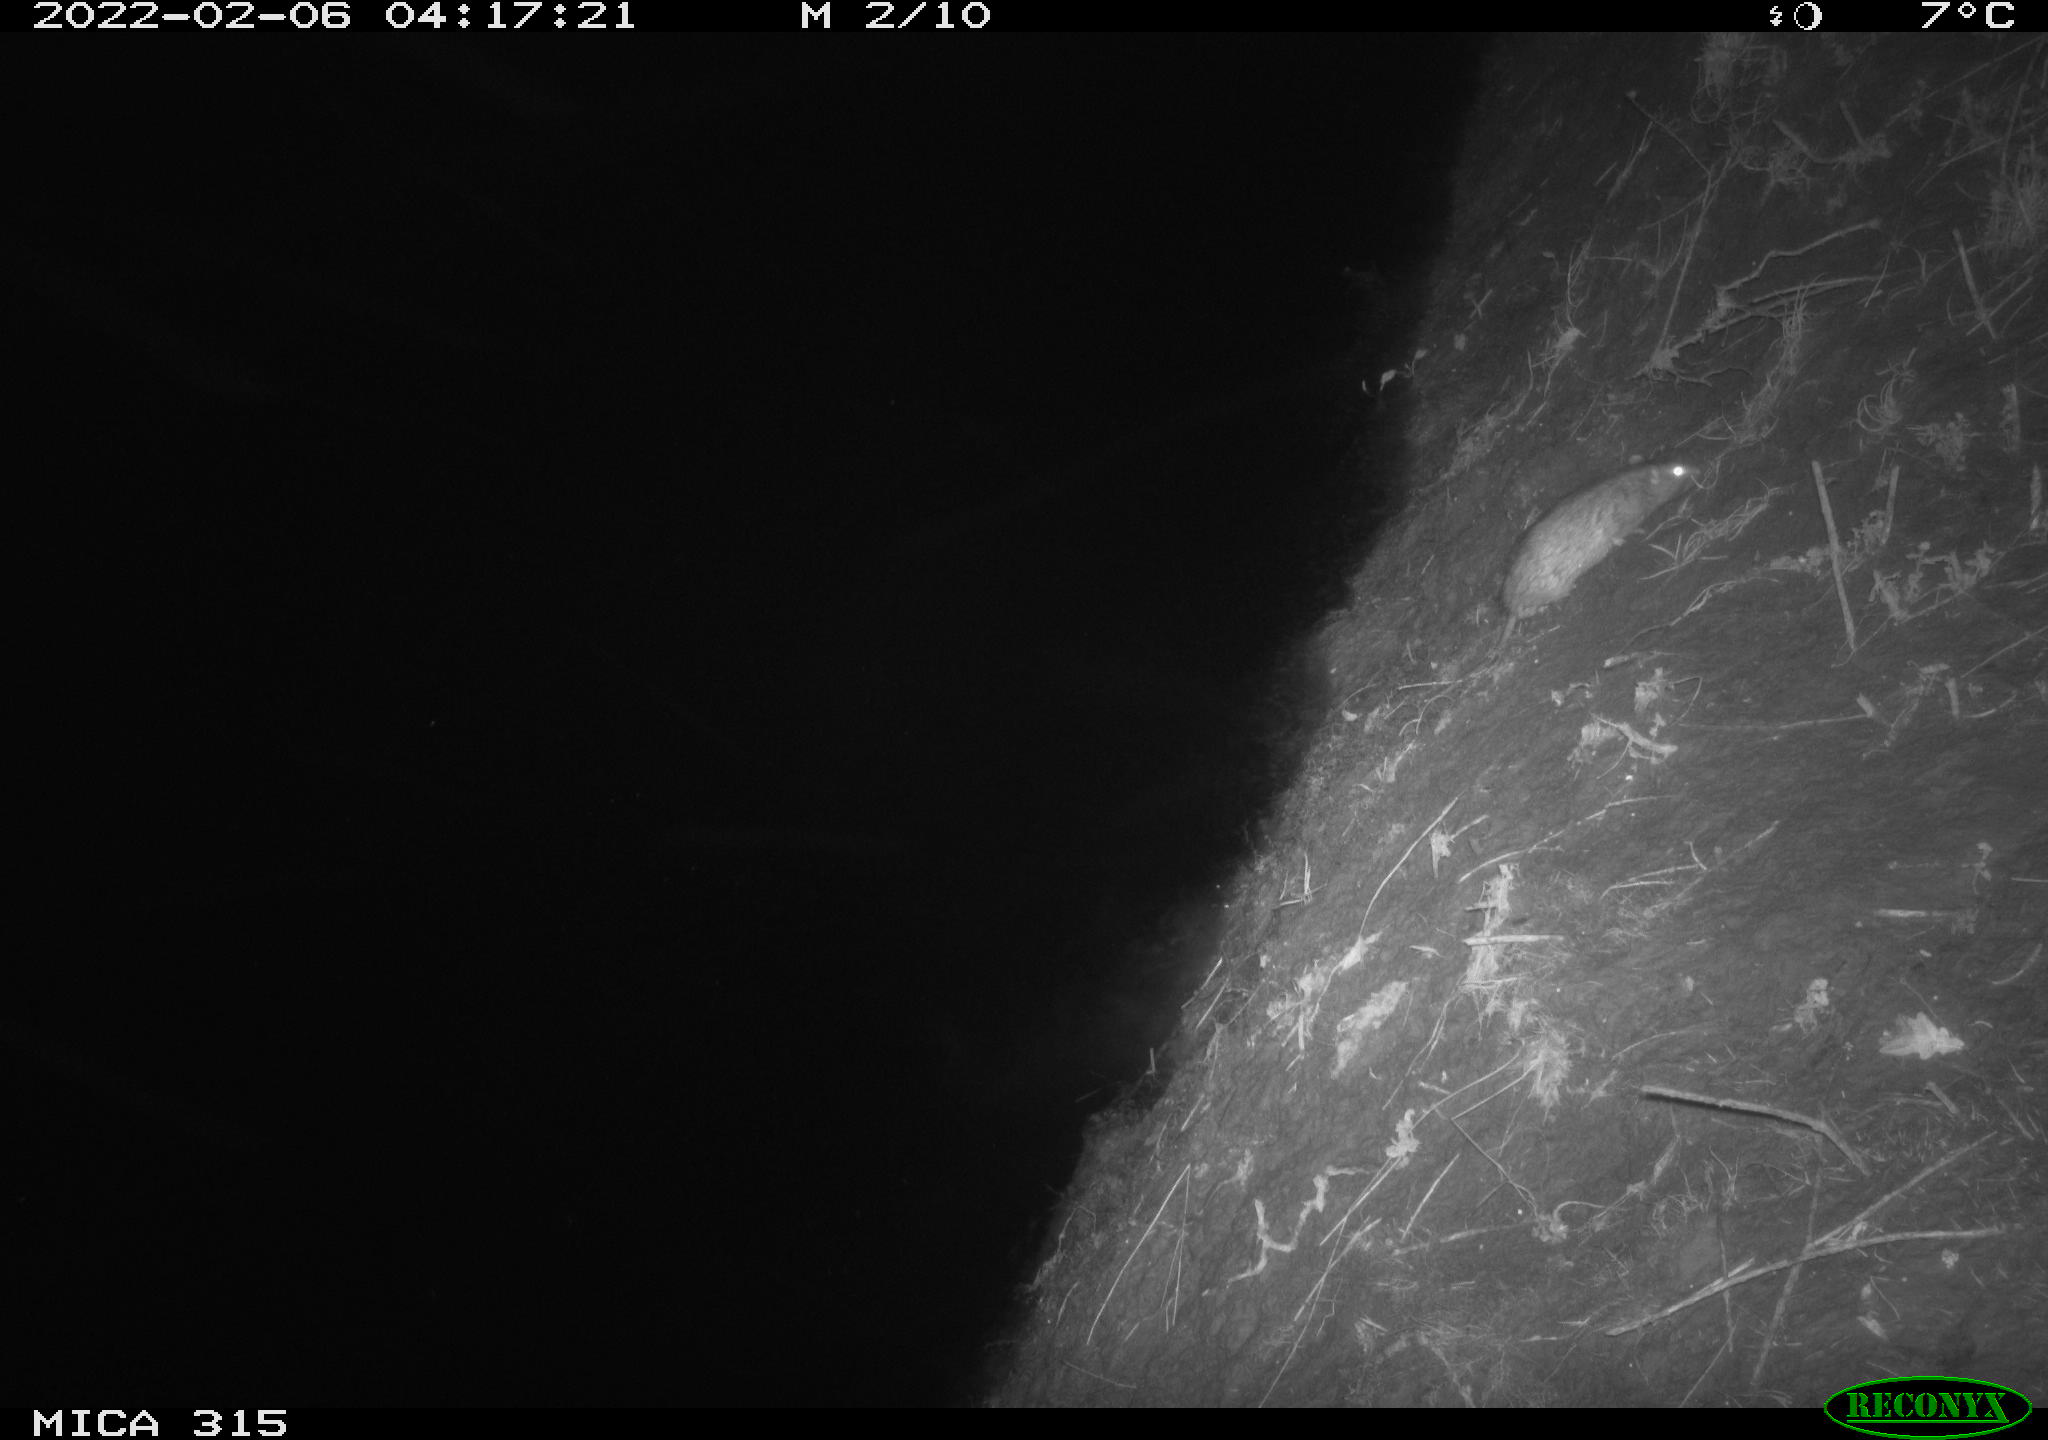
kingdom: Animalia
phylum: Chordata
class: Mammalia
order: Rodentia
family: Muridae
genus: Rattus
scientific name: Rattus norvegicus
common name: Brown rat
